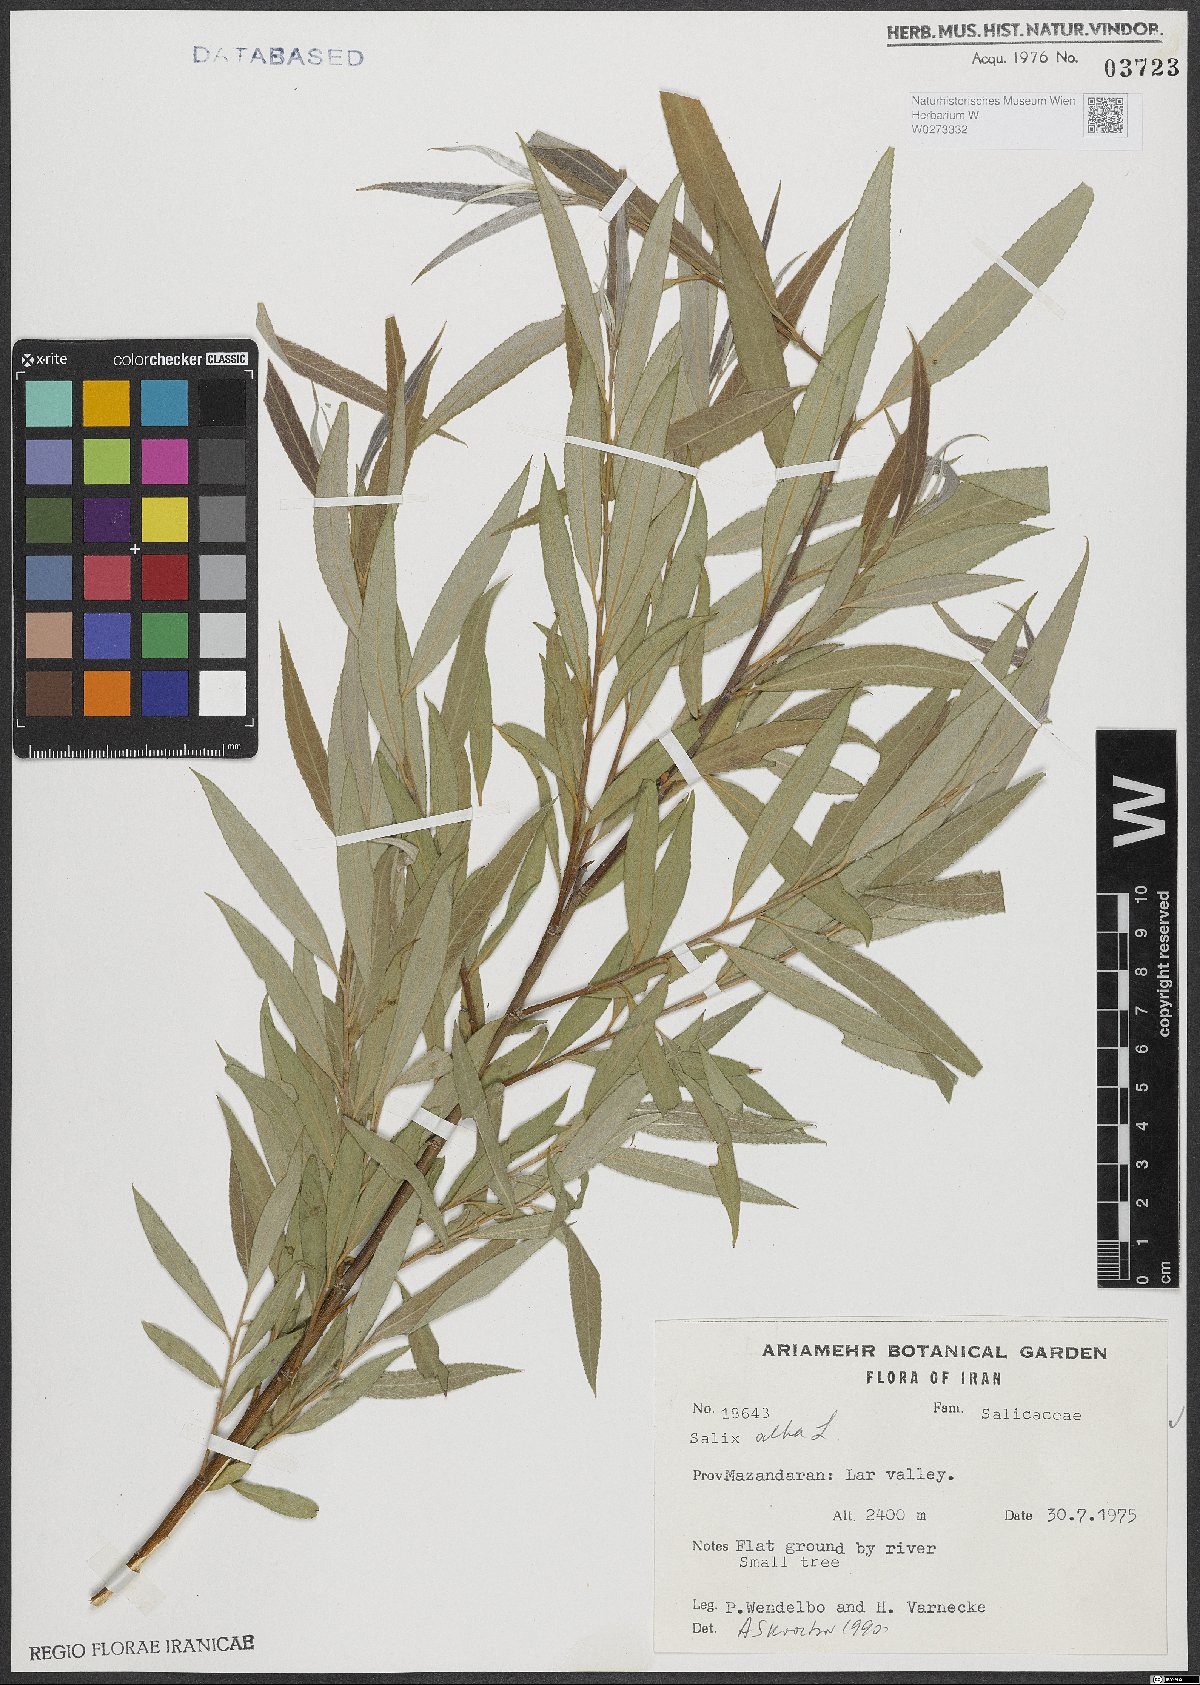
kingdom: Plantae
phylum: Tracheophyta
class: Magnoliopsida
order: Malpighiales
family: Salicaceae
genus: Salix
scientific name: Salix alba
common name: White willow
